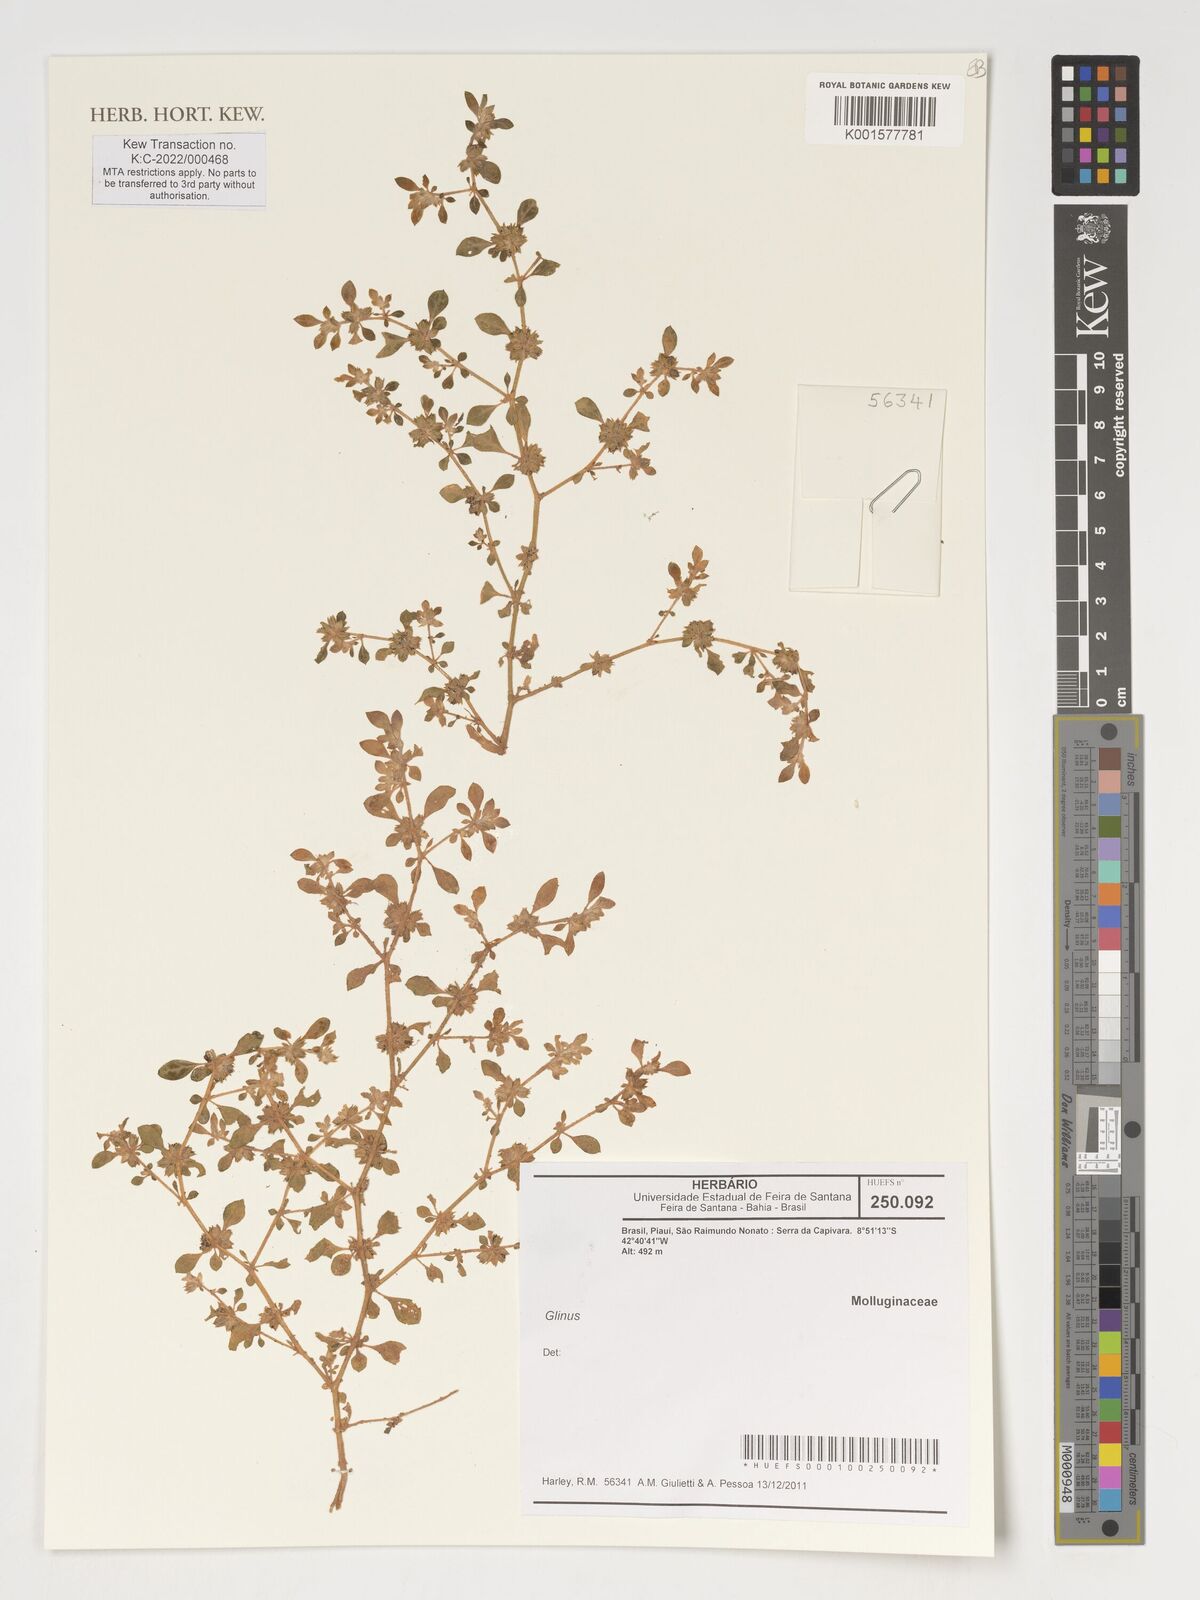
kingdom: Plantae
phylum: Tracheophyta
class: Magnoliopsida
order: Caryophyllales
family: Molluginaceae
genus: Glinus
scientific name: Glinus
